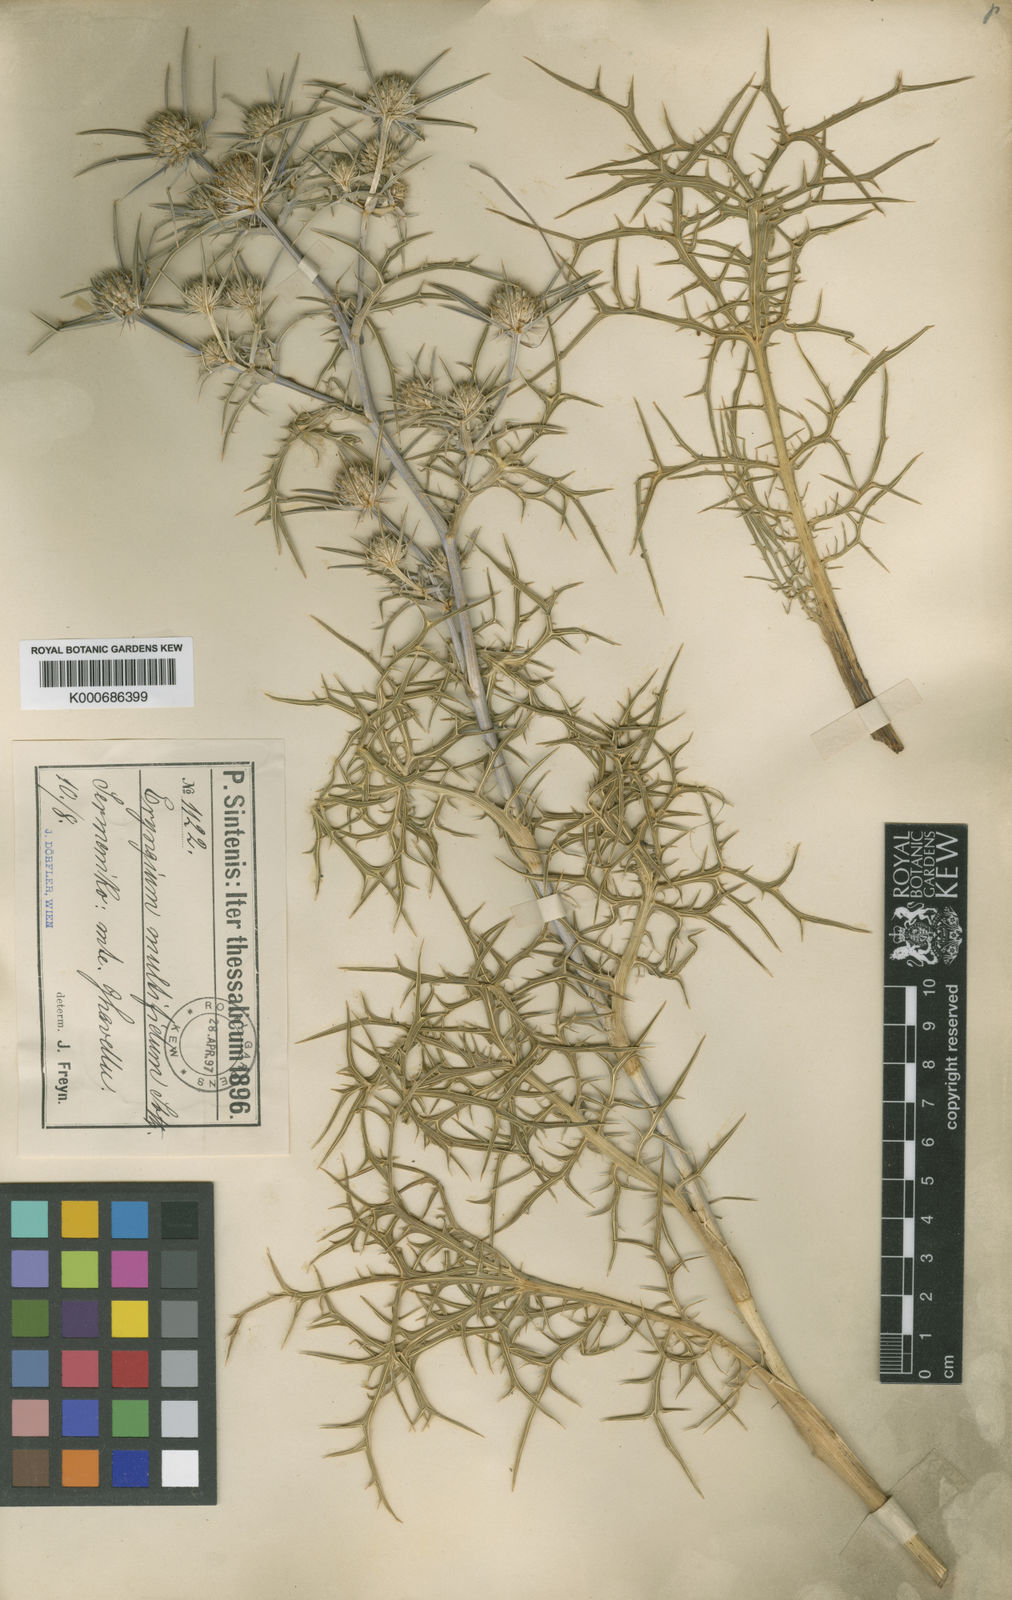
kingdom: Plantae
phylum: Tracheophyta
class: Magnoliopsida
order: Apiales
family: Apiaceae
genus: Eryngium
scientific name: Eryngium amethystinum
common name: Amethyst eryngo
